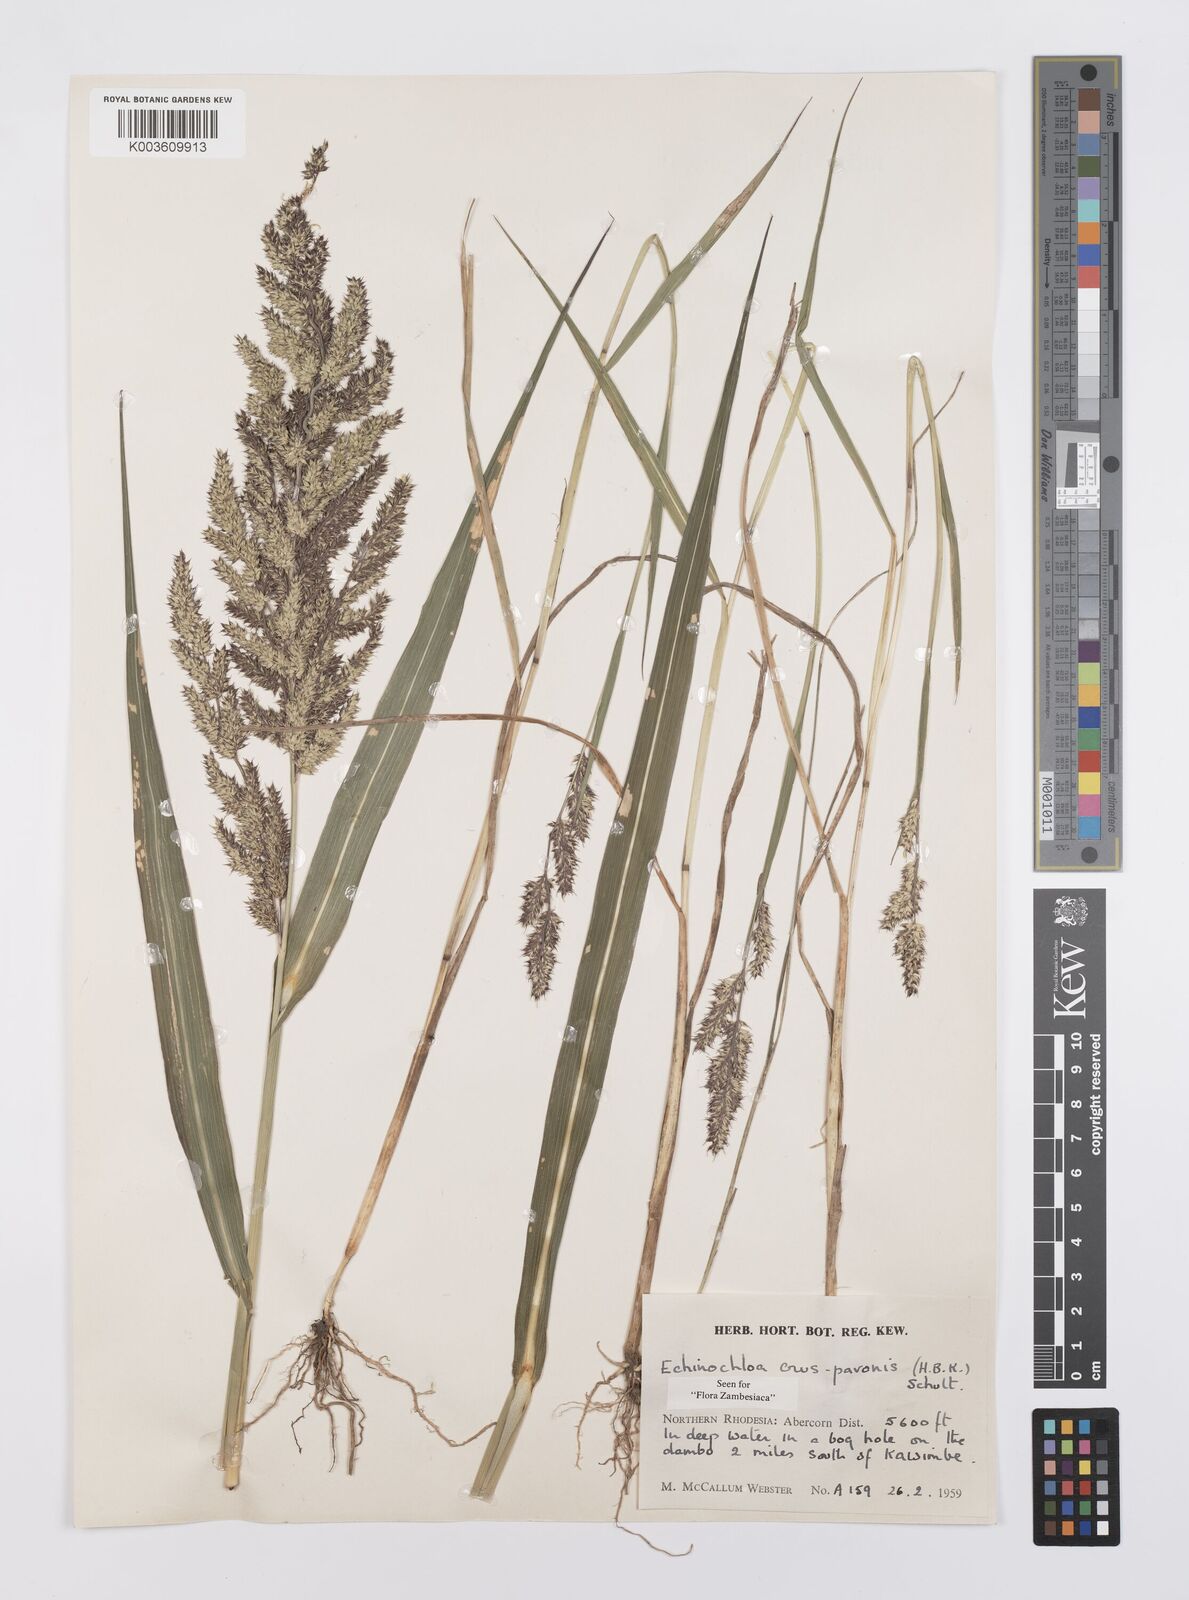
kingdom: Plantae
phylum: Tracheophyta
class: Liliopsida
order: Poales
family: Poaceae
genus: Echinochloa
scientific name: Echinochloa crus-pavonis
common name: Gulf cockspur grass
